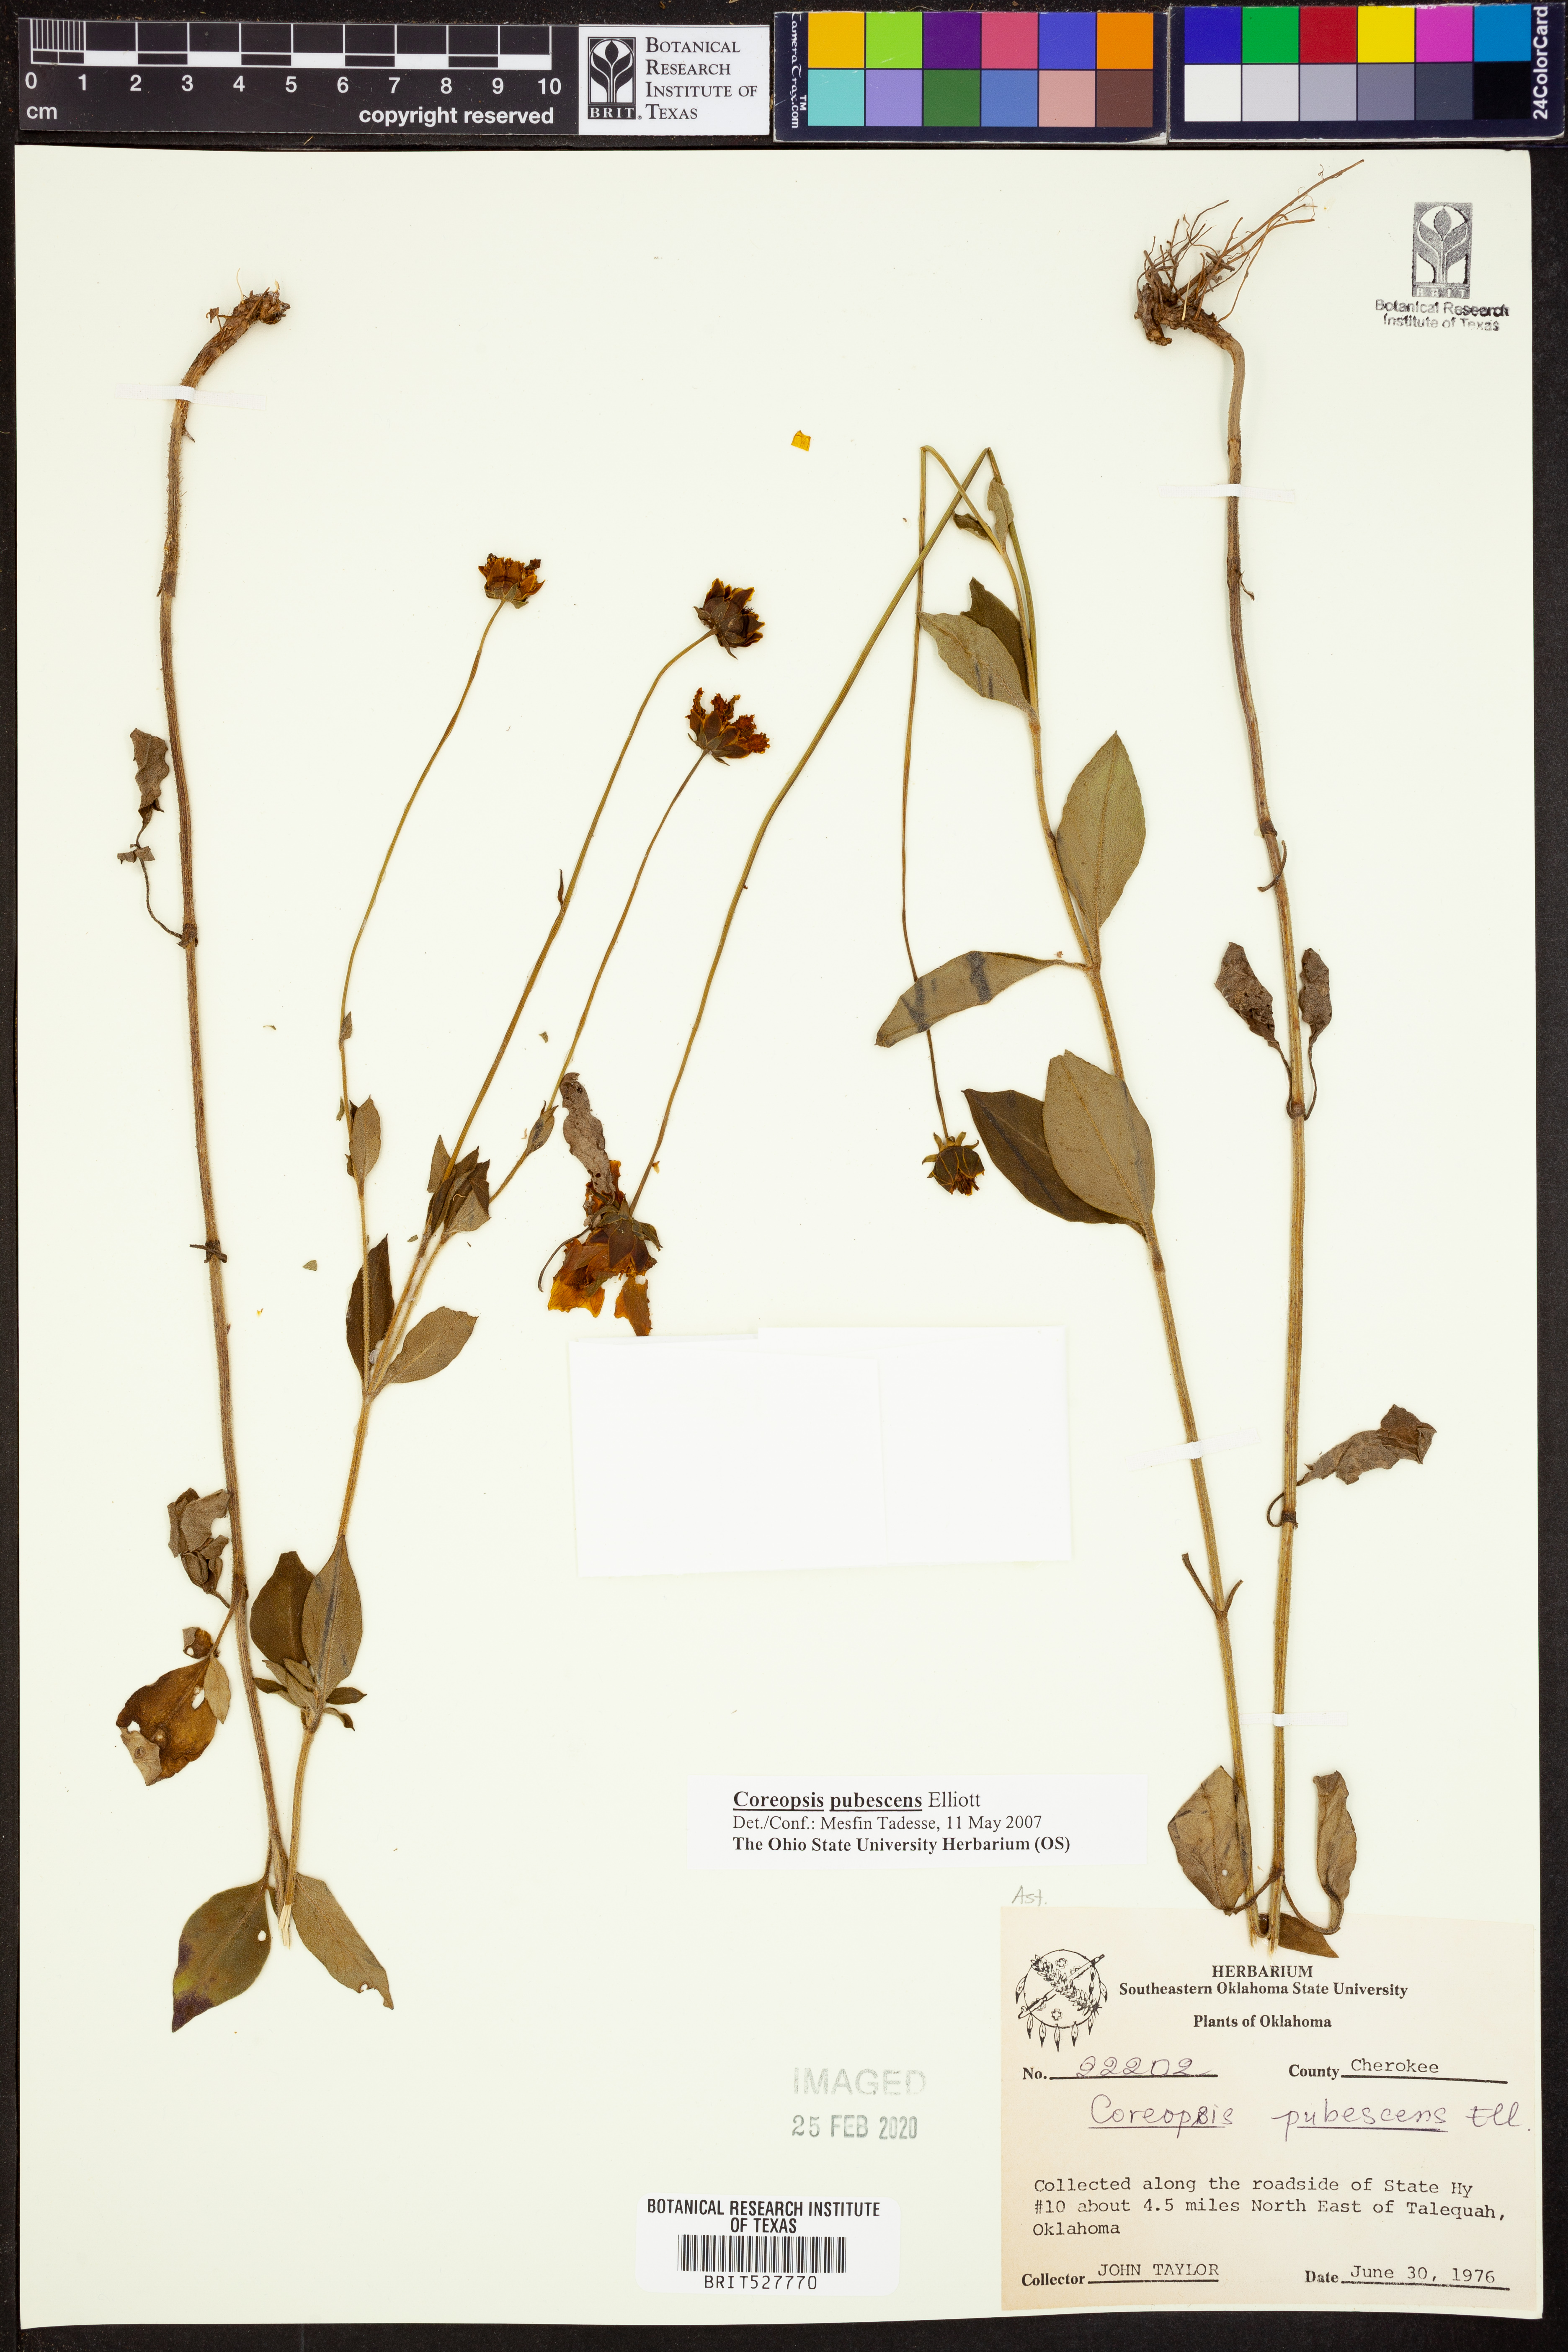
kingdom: Plantae
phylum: Tracheophyta
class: Magnoliopsida
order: Asterales
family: Asteraceae
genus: Coreopsis
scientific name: Coreopsis pubescens
